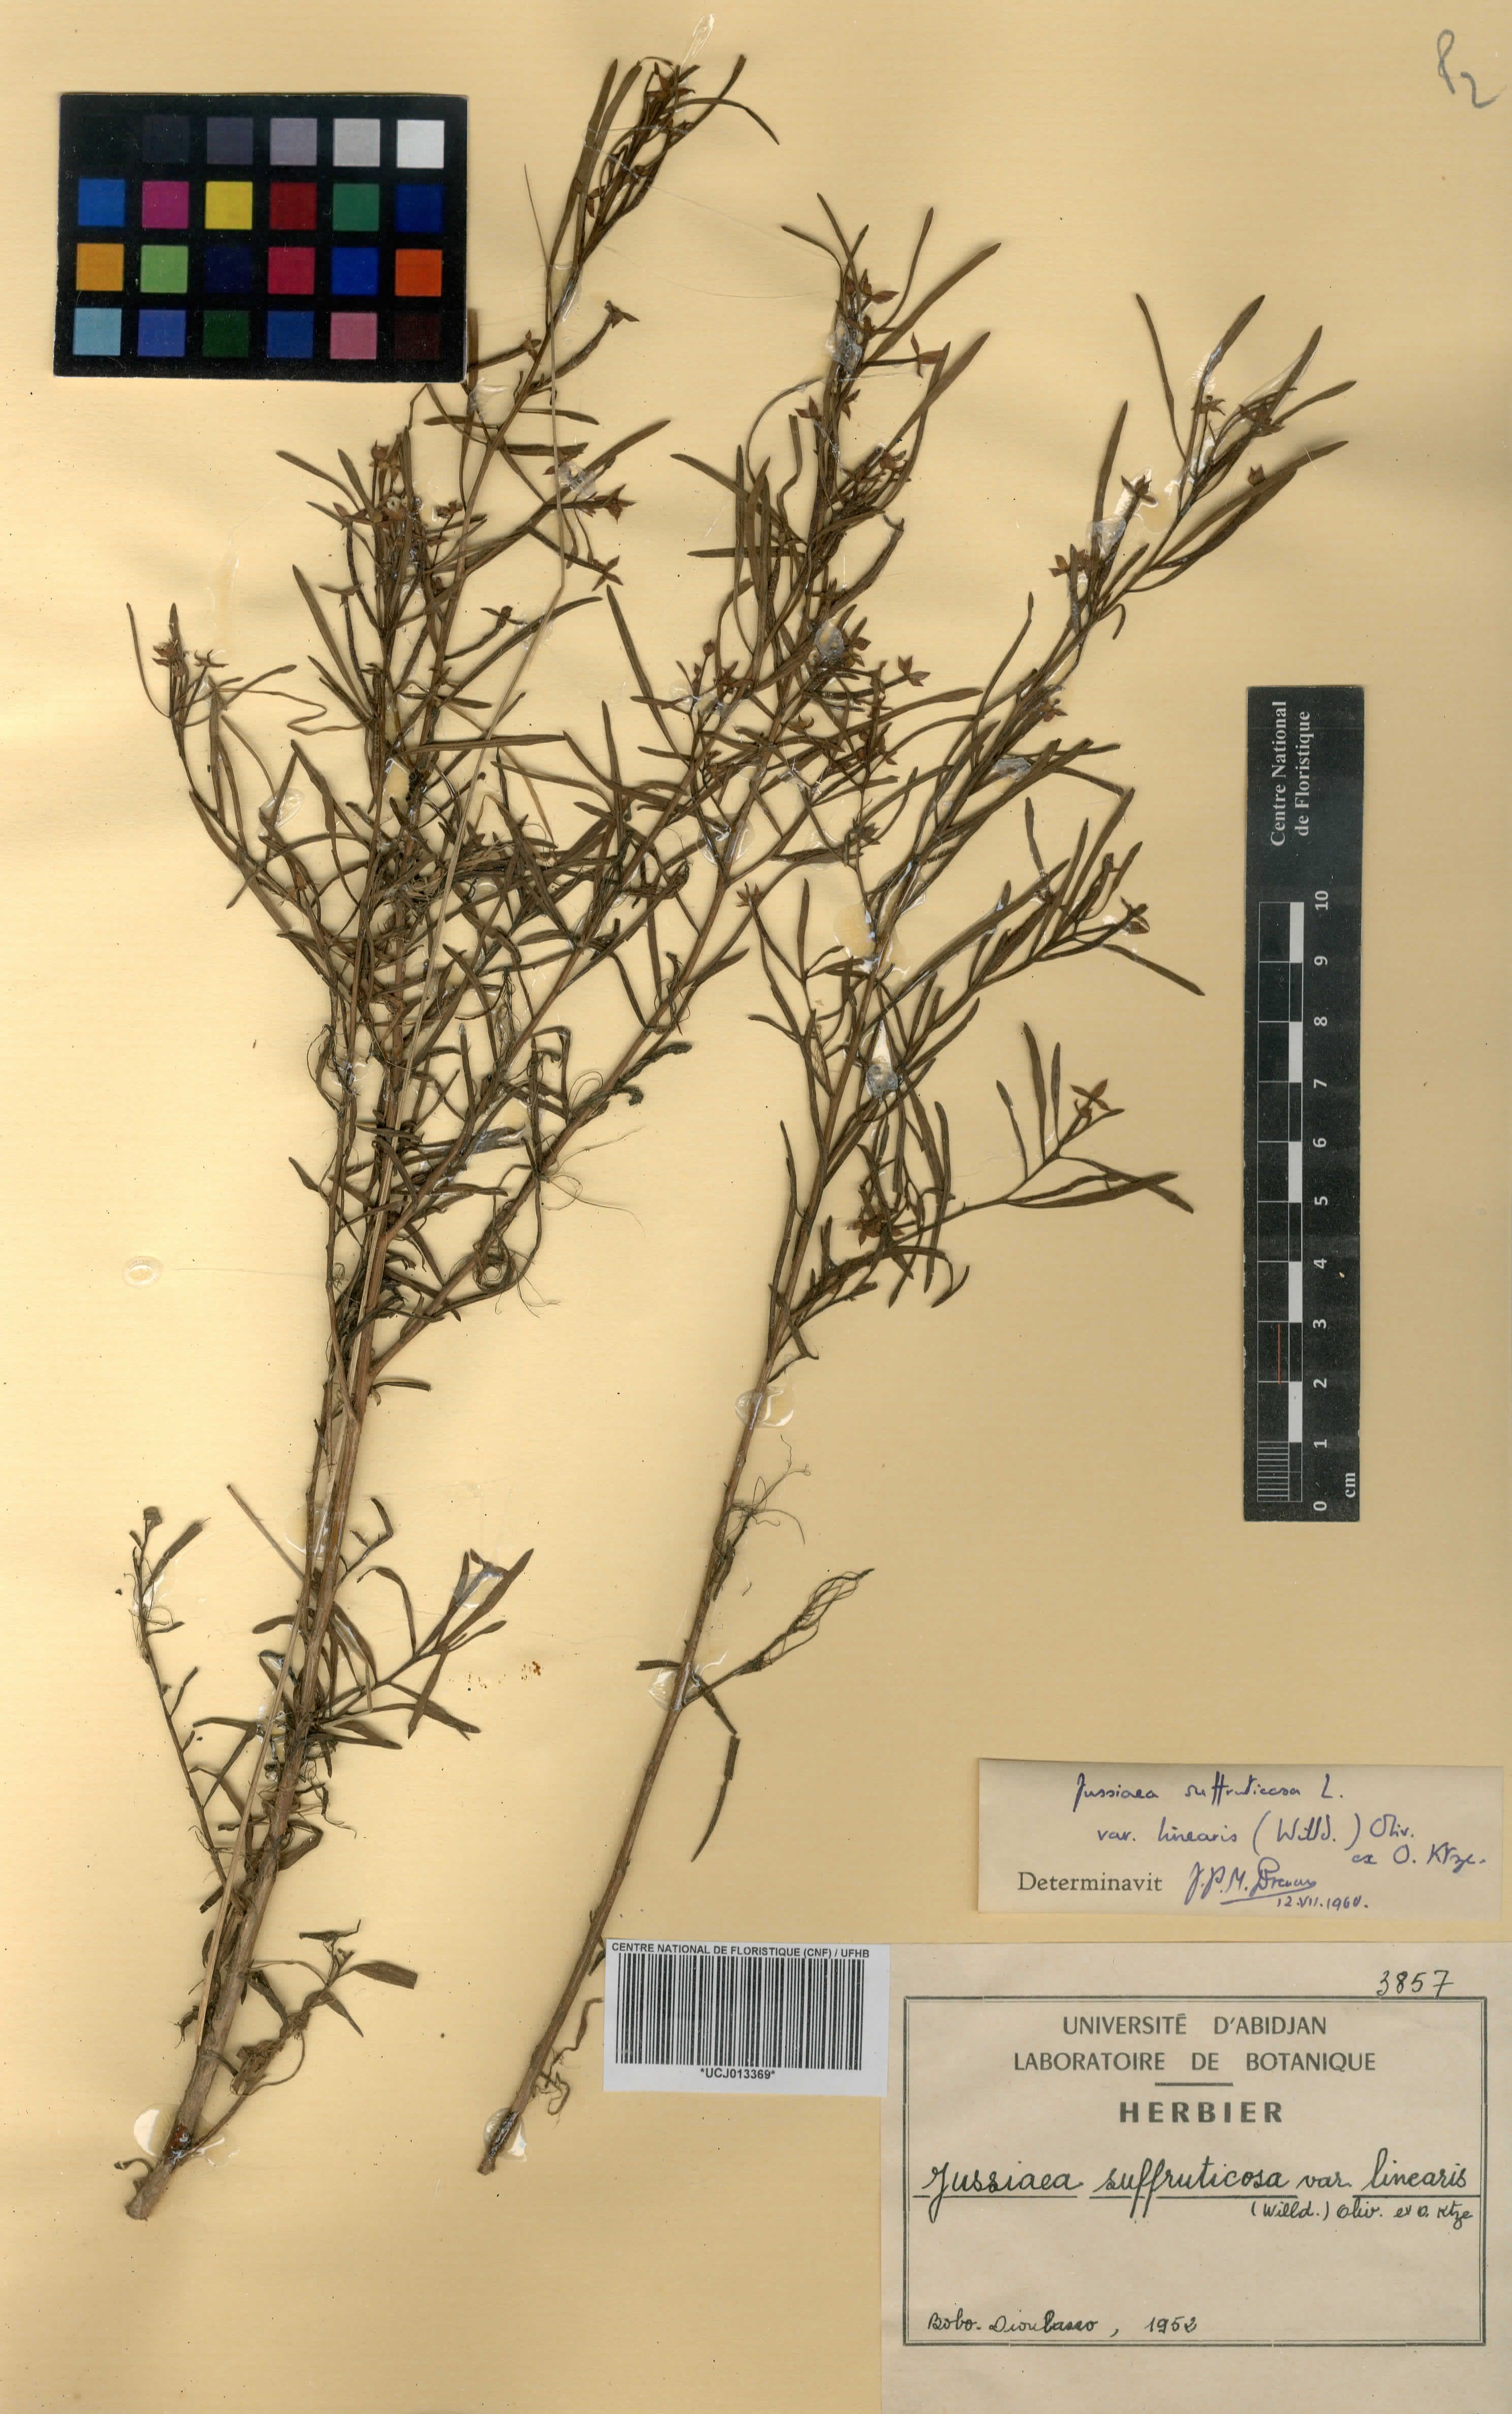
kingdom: Plantae
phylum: Tracheophyta
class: Magnoliopsida
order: Myrtales
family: Onagraceae
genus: Ludwigia
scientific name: Ludwigia octovalvis
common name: Water-primrose
